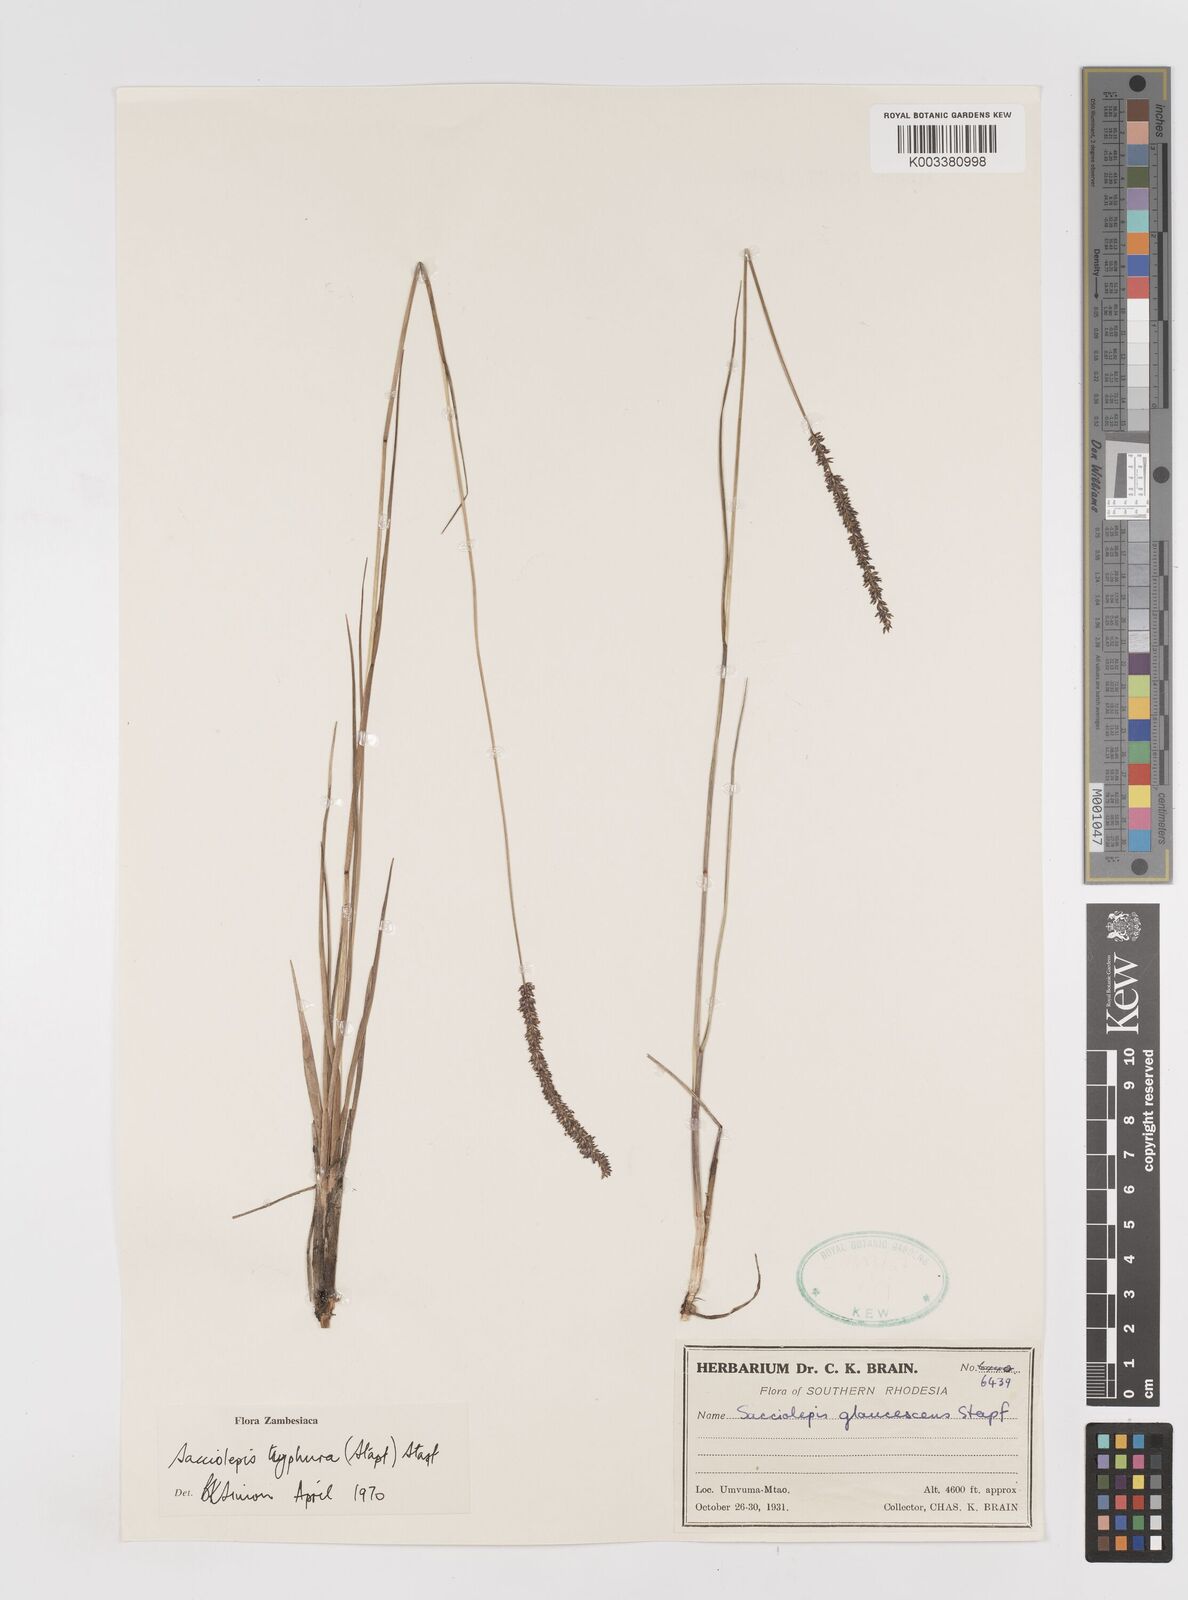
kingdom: Plantae
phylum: Tracheophyta
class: Liliopsida
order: Poales
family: Poaceae
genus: Sacciolepis
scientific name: Sacciolepis typhura
